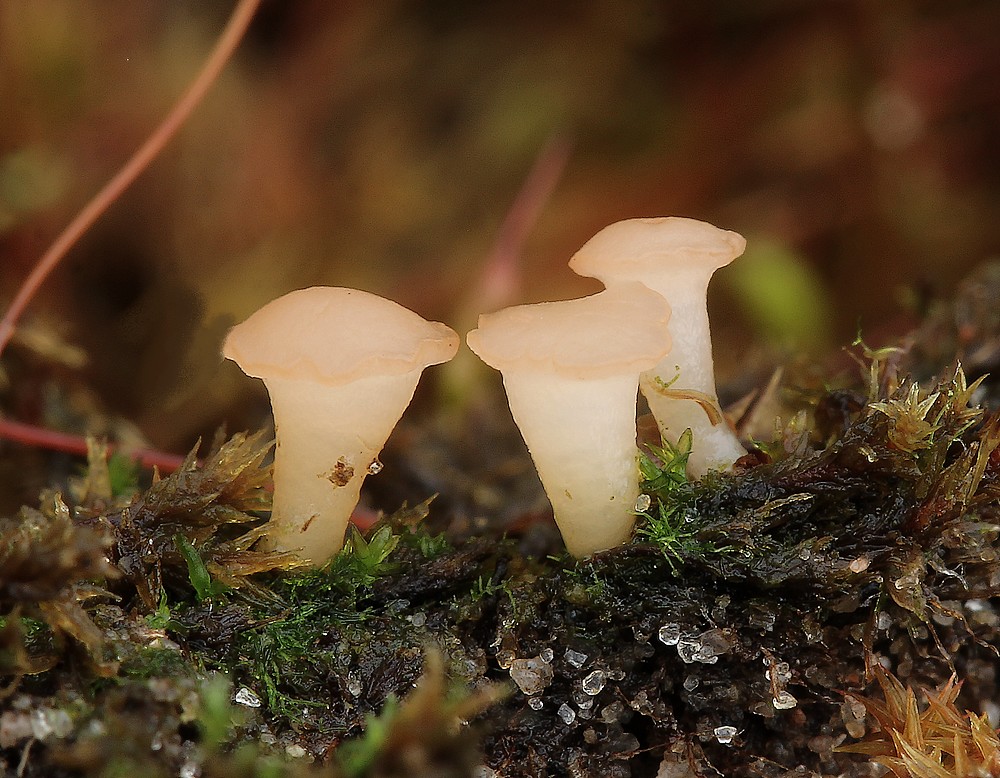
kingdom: Fungi
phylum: Ascomycota
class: Leotiomycetes
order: Helotiales
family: Hyaloscyphaceae
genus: Roseodiscus
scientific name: Roseodiscus formosus
